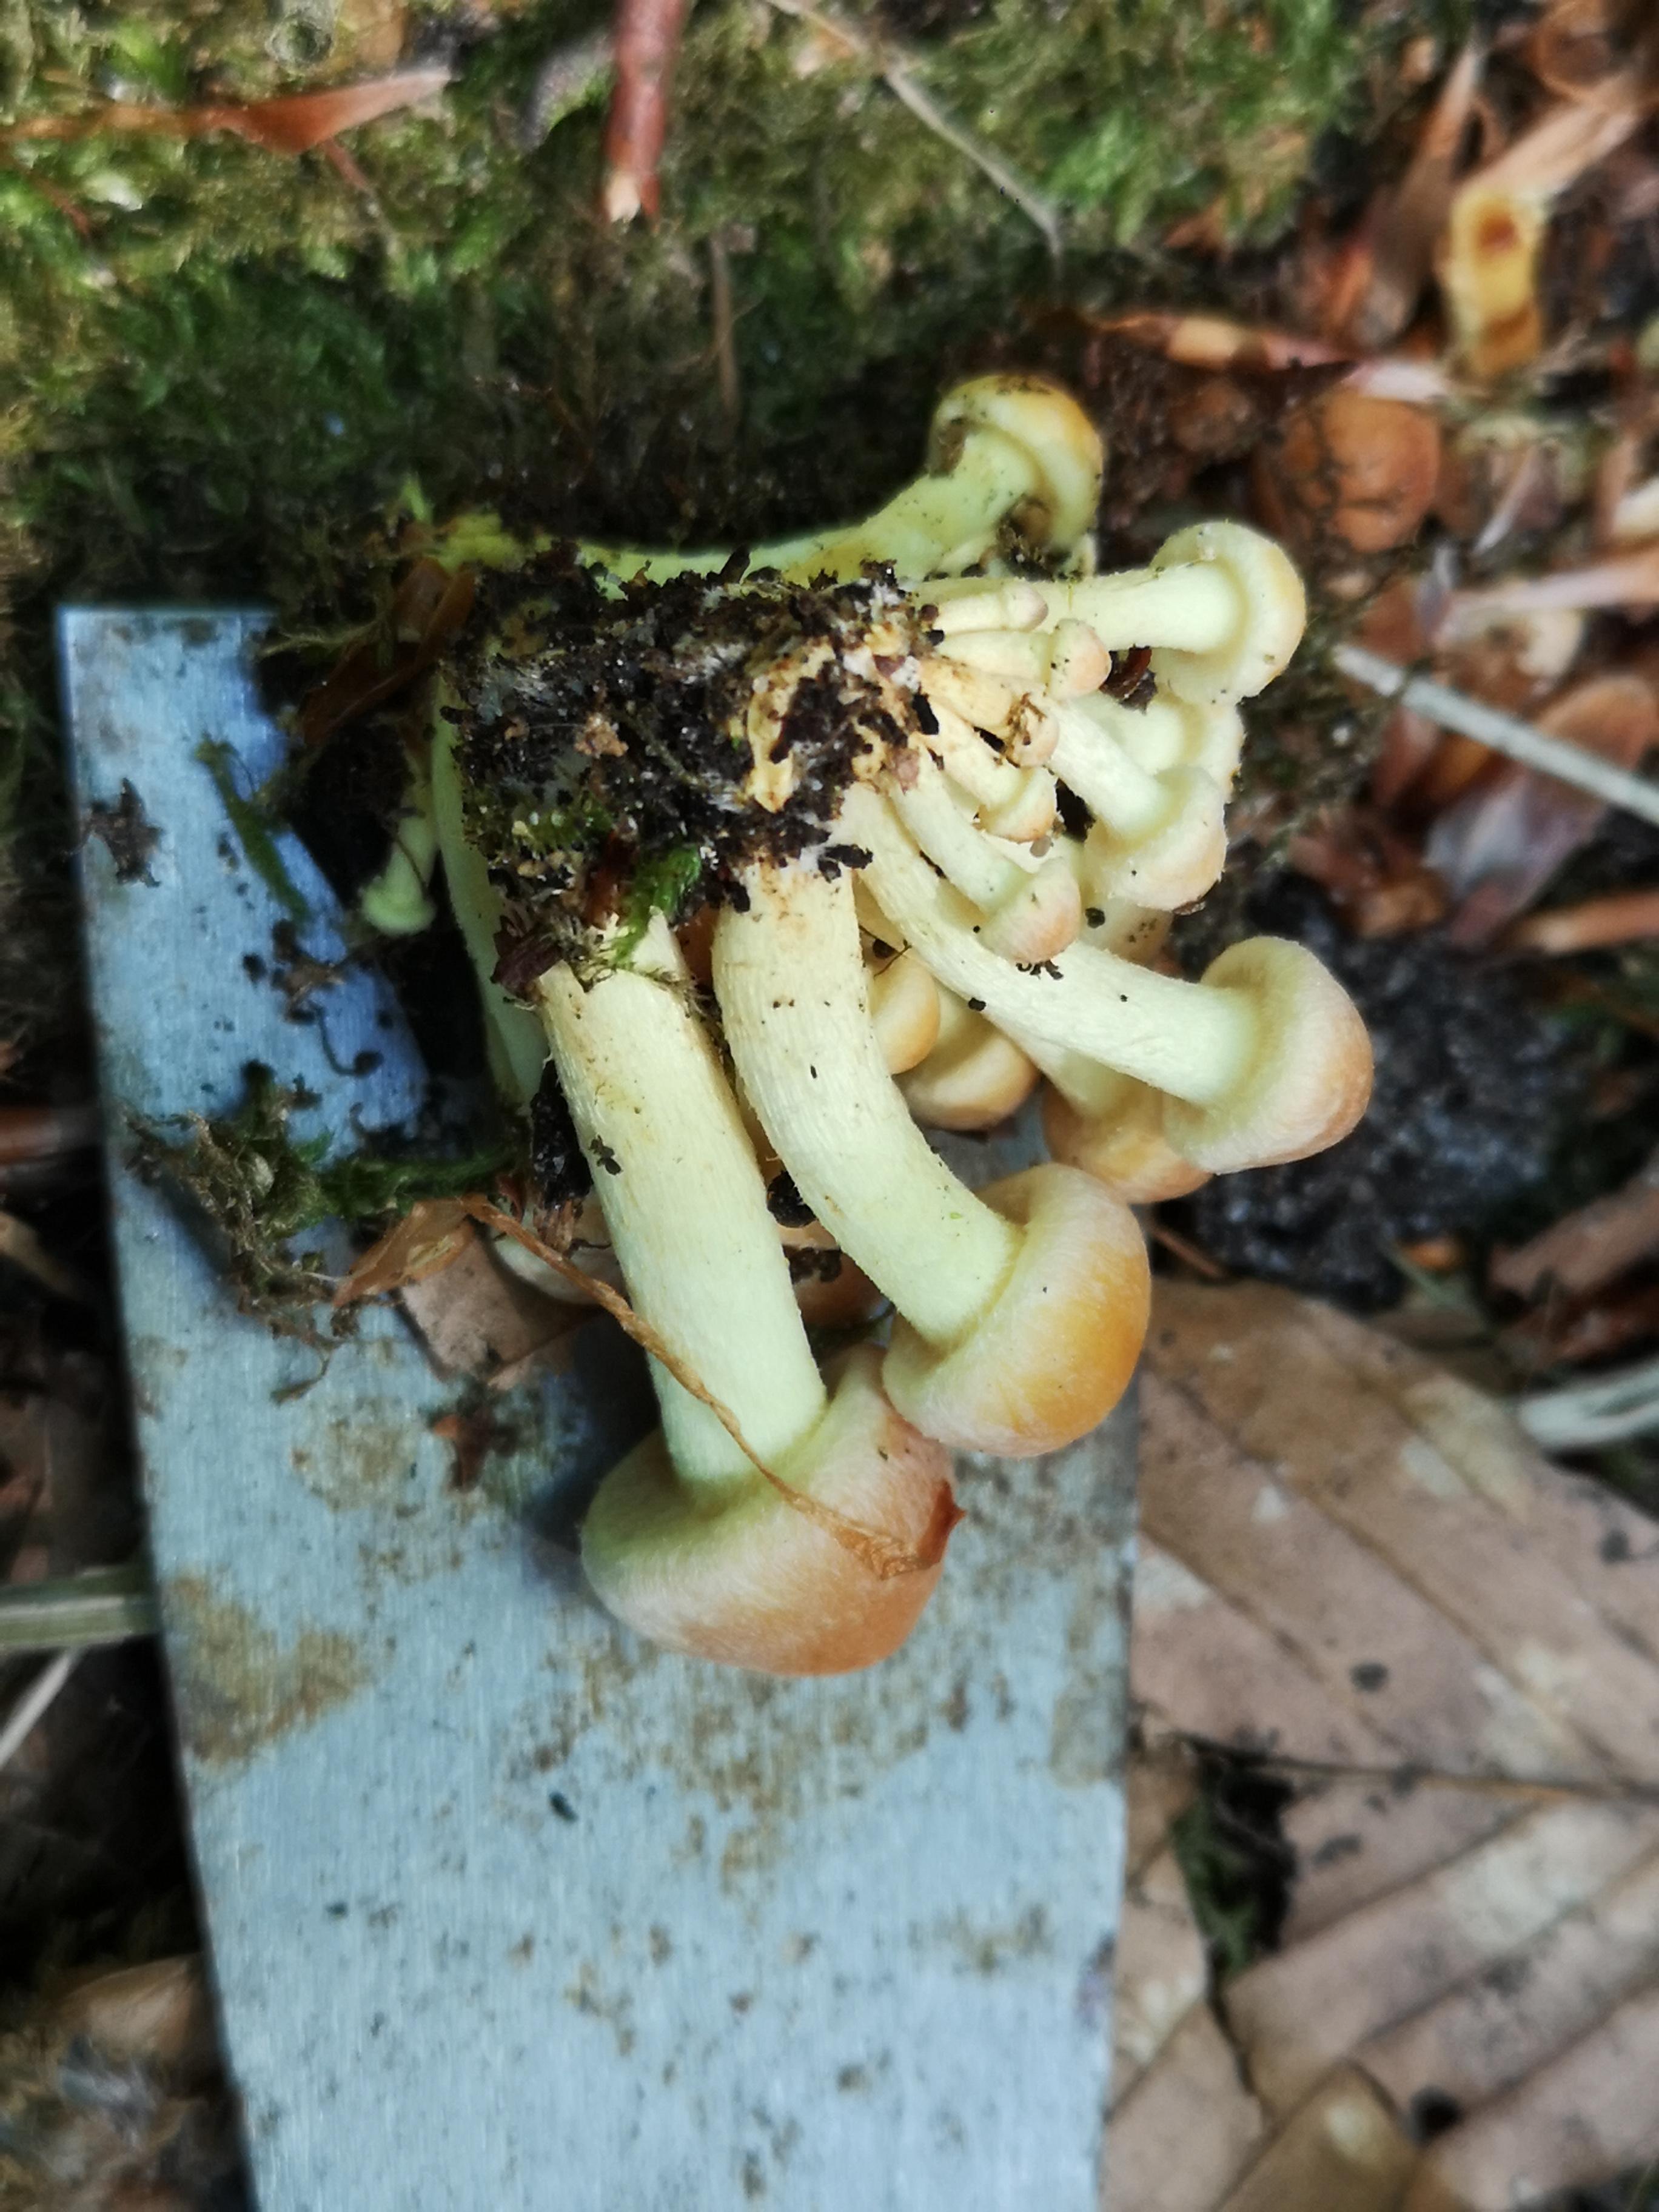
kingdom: Fungi
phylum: Basidiomycota
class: Agaricomycetes
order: Agaricales
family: Strophariaceae
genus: Hypholoma
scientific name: Hypholoma fasciculare
